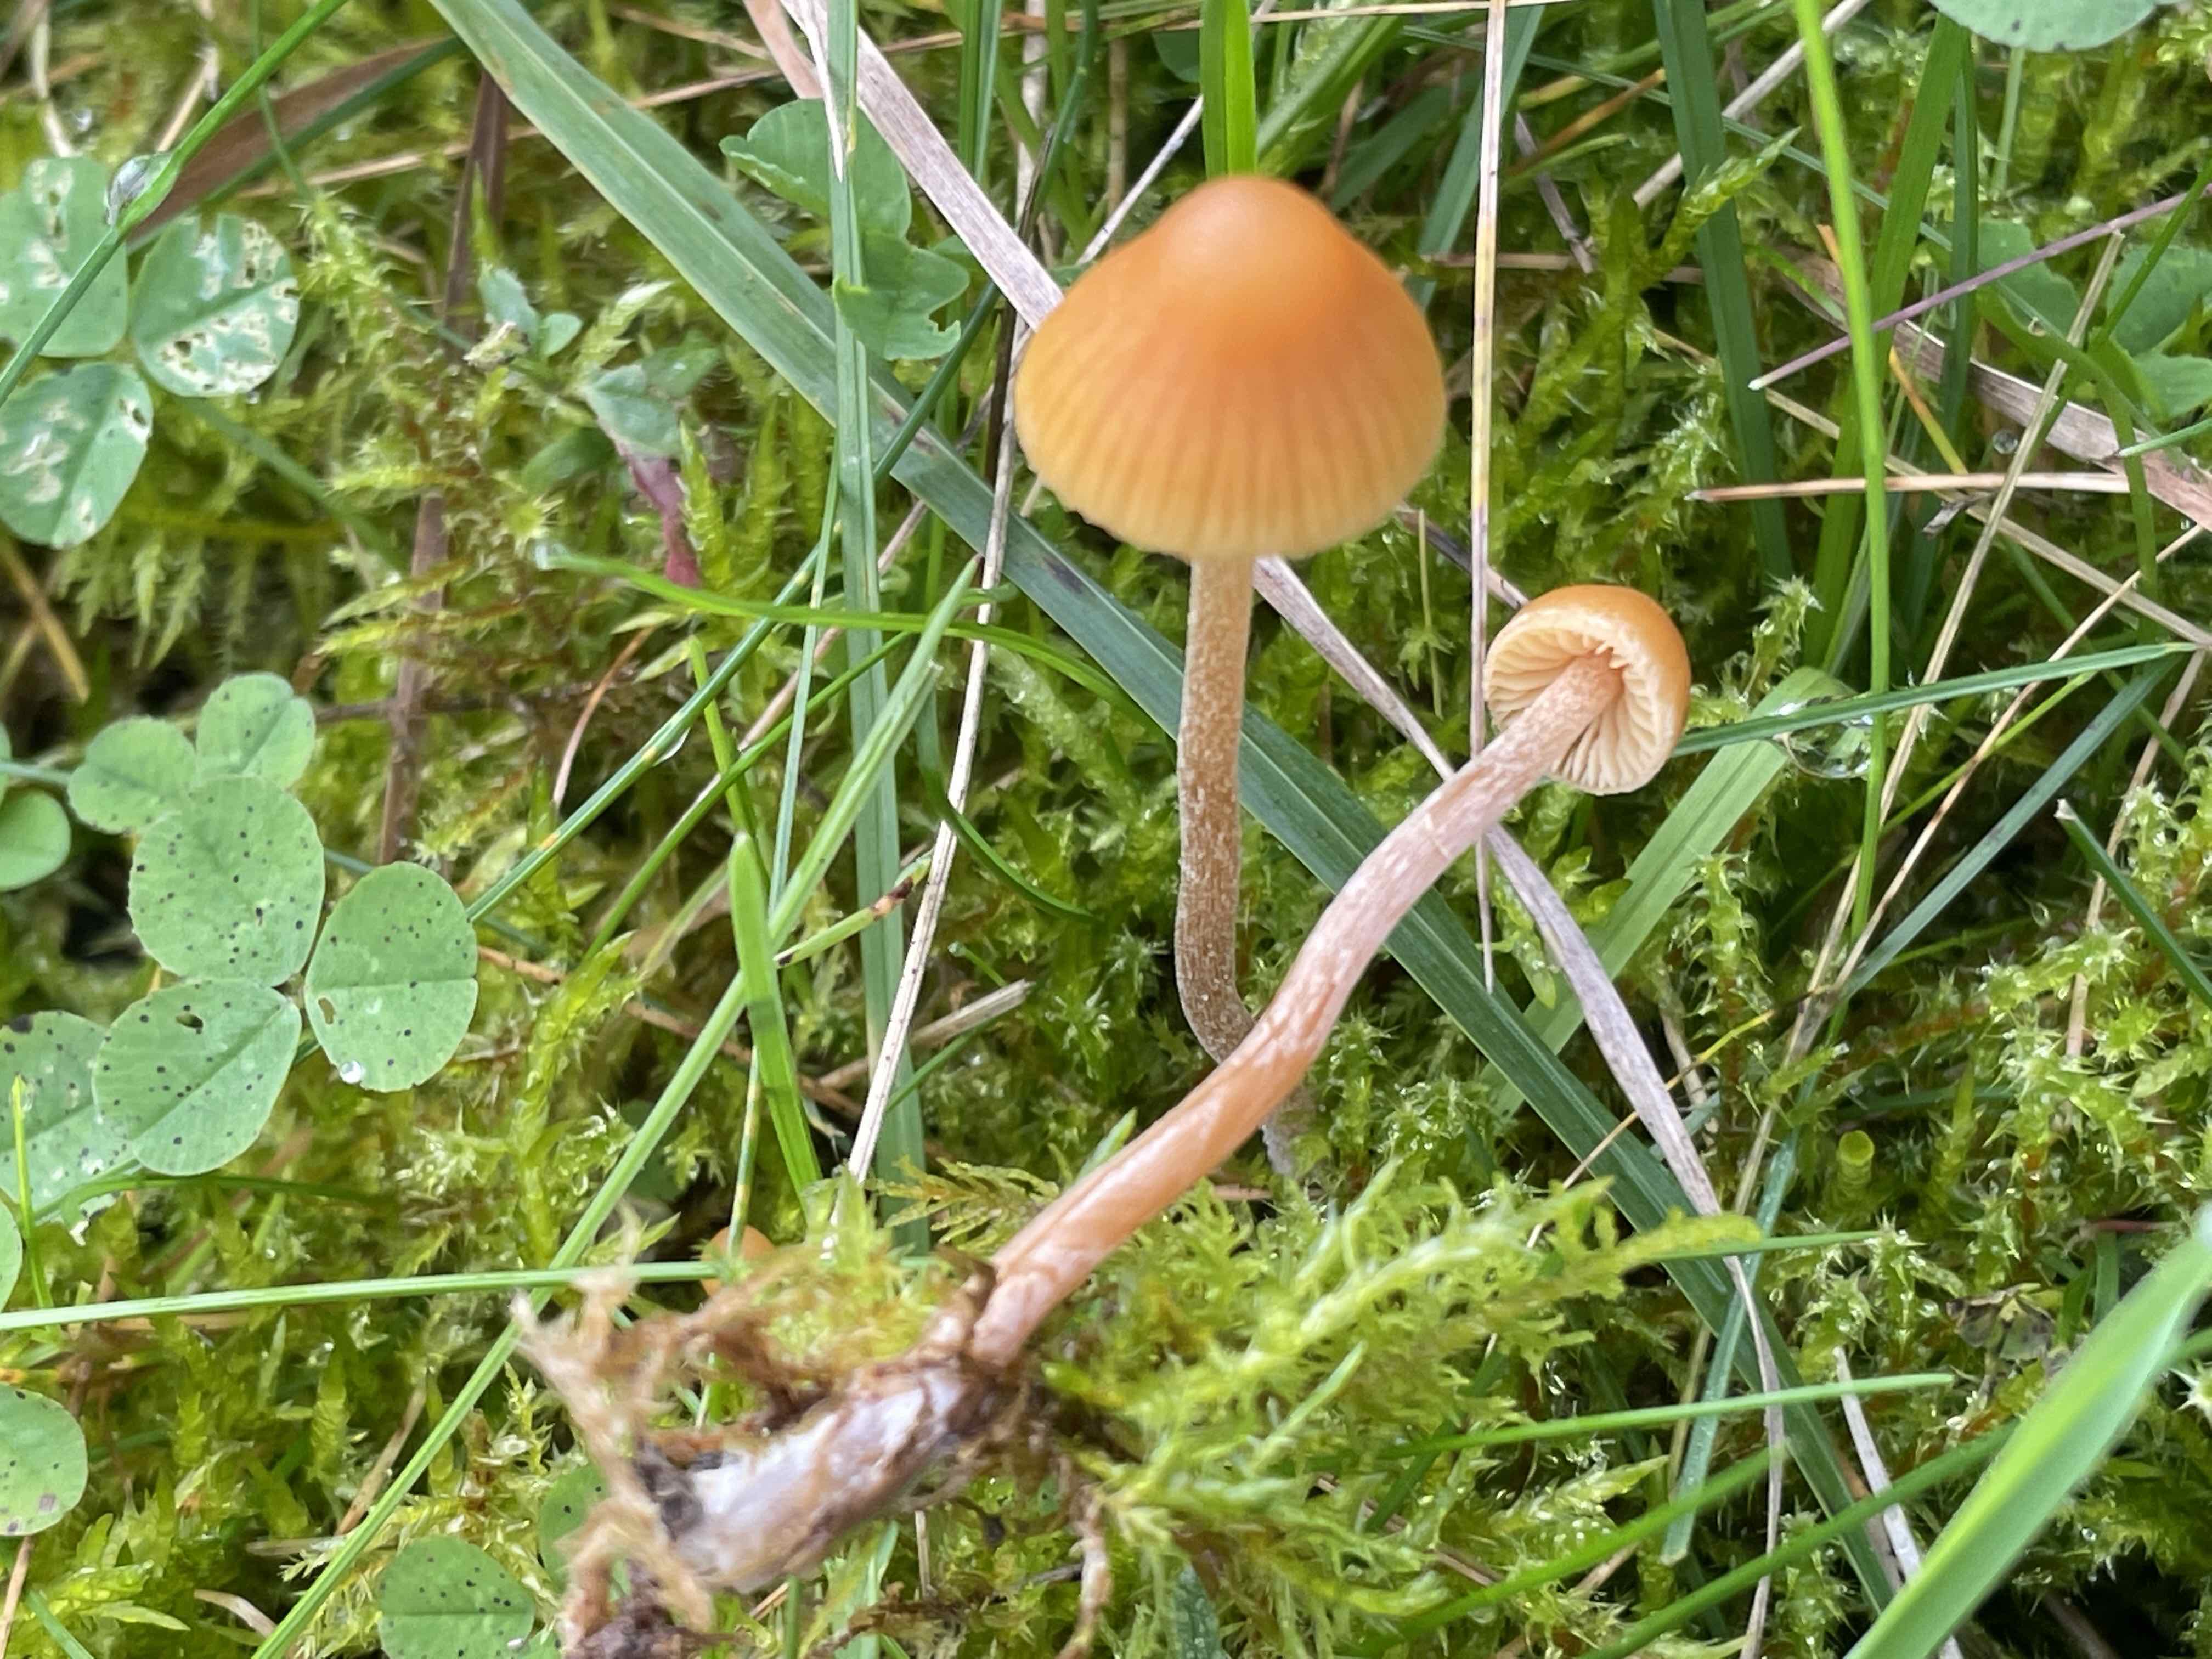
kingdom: Fungi
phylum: Basidiomycota
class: Agaricomycetes
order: Agaricales
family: Hymenogastraceae
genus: Galerina
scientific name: Galerina
